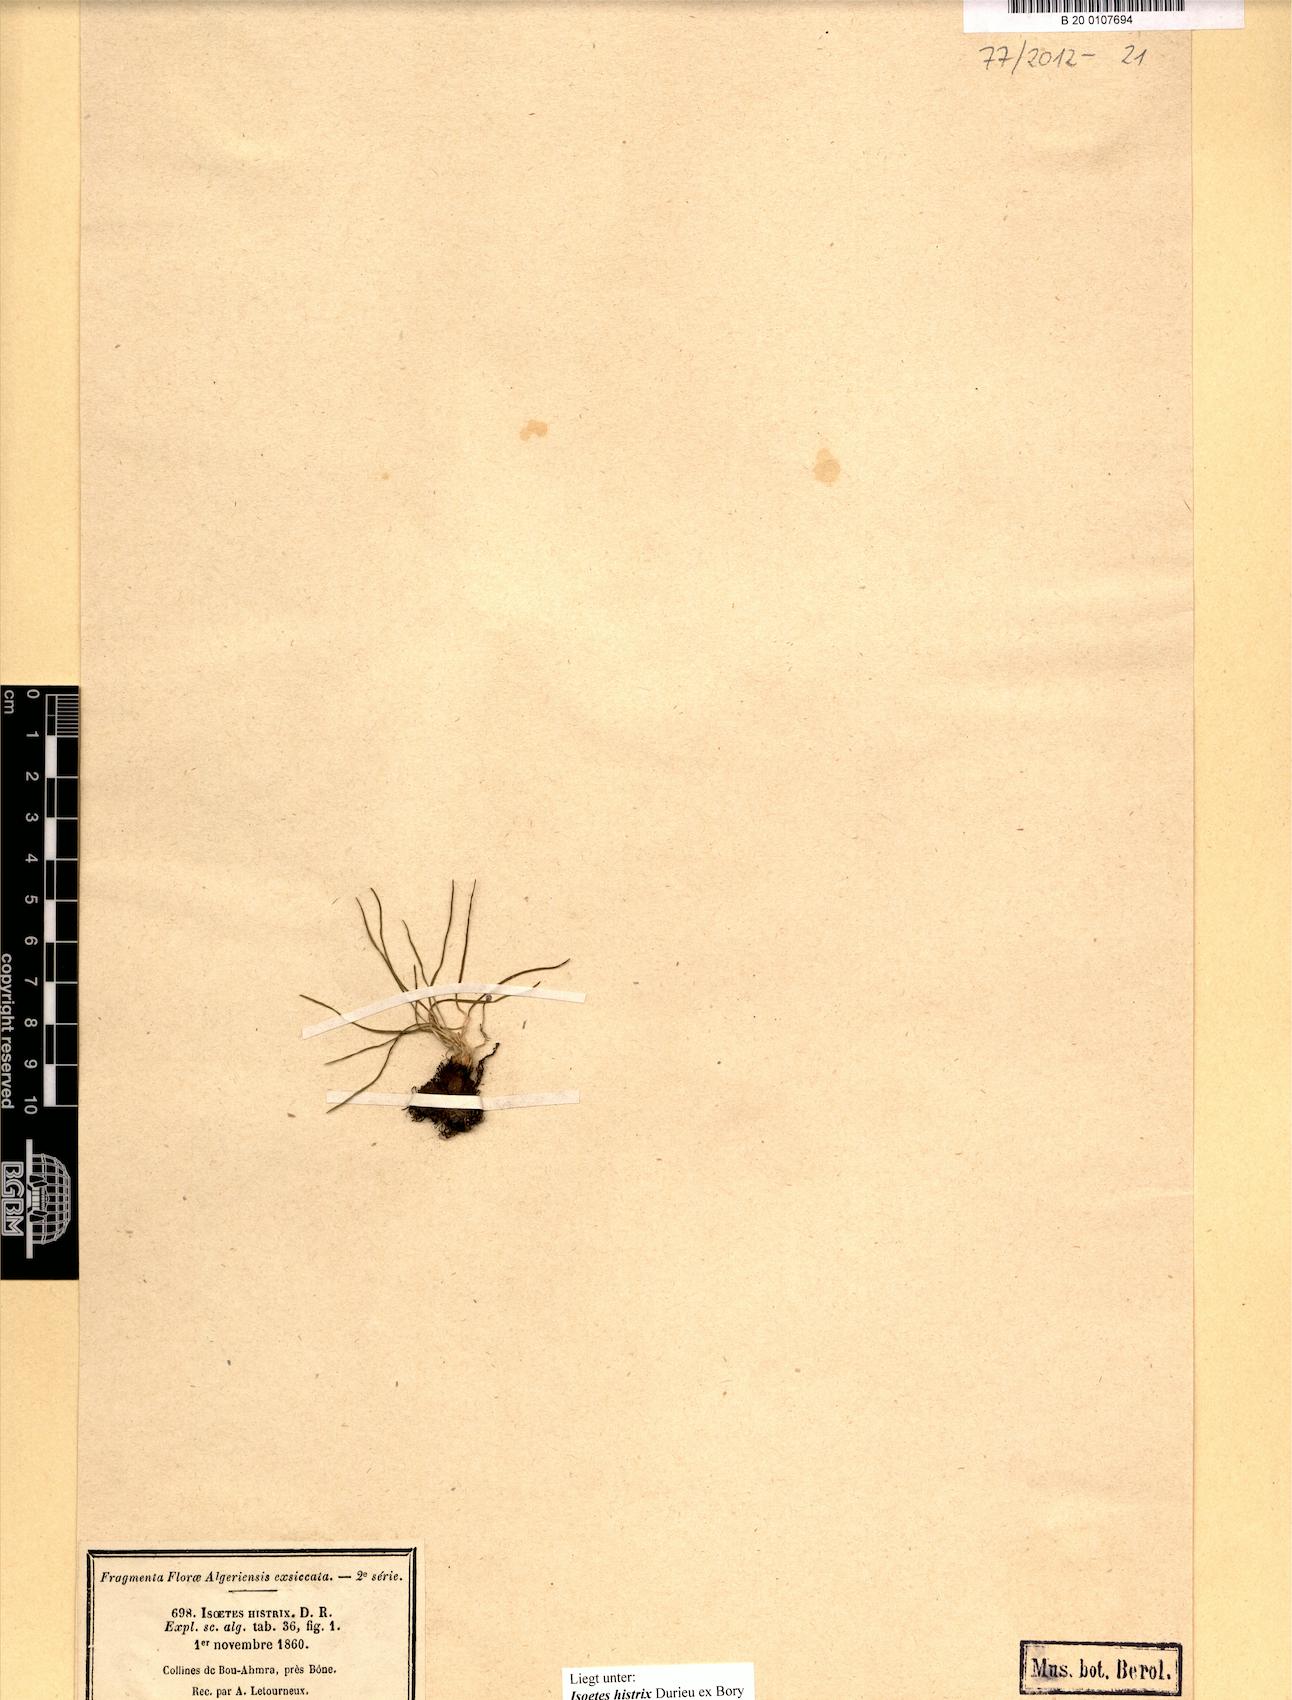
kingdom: Plantae
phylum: Tracheophyta
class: Lycopodiopsida
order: Isoetales
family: Isoetaceae
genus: Isoetes
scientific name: Isoetes histrix
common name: Land quillwort
